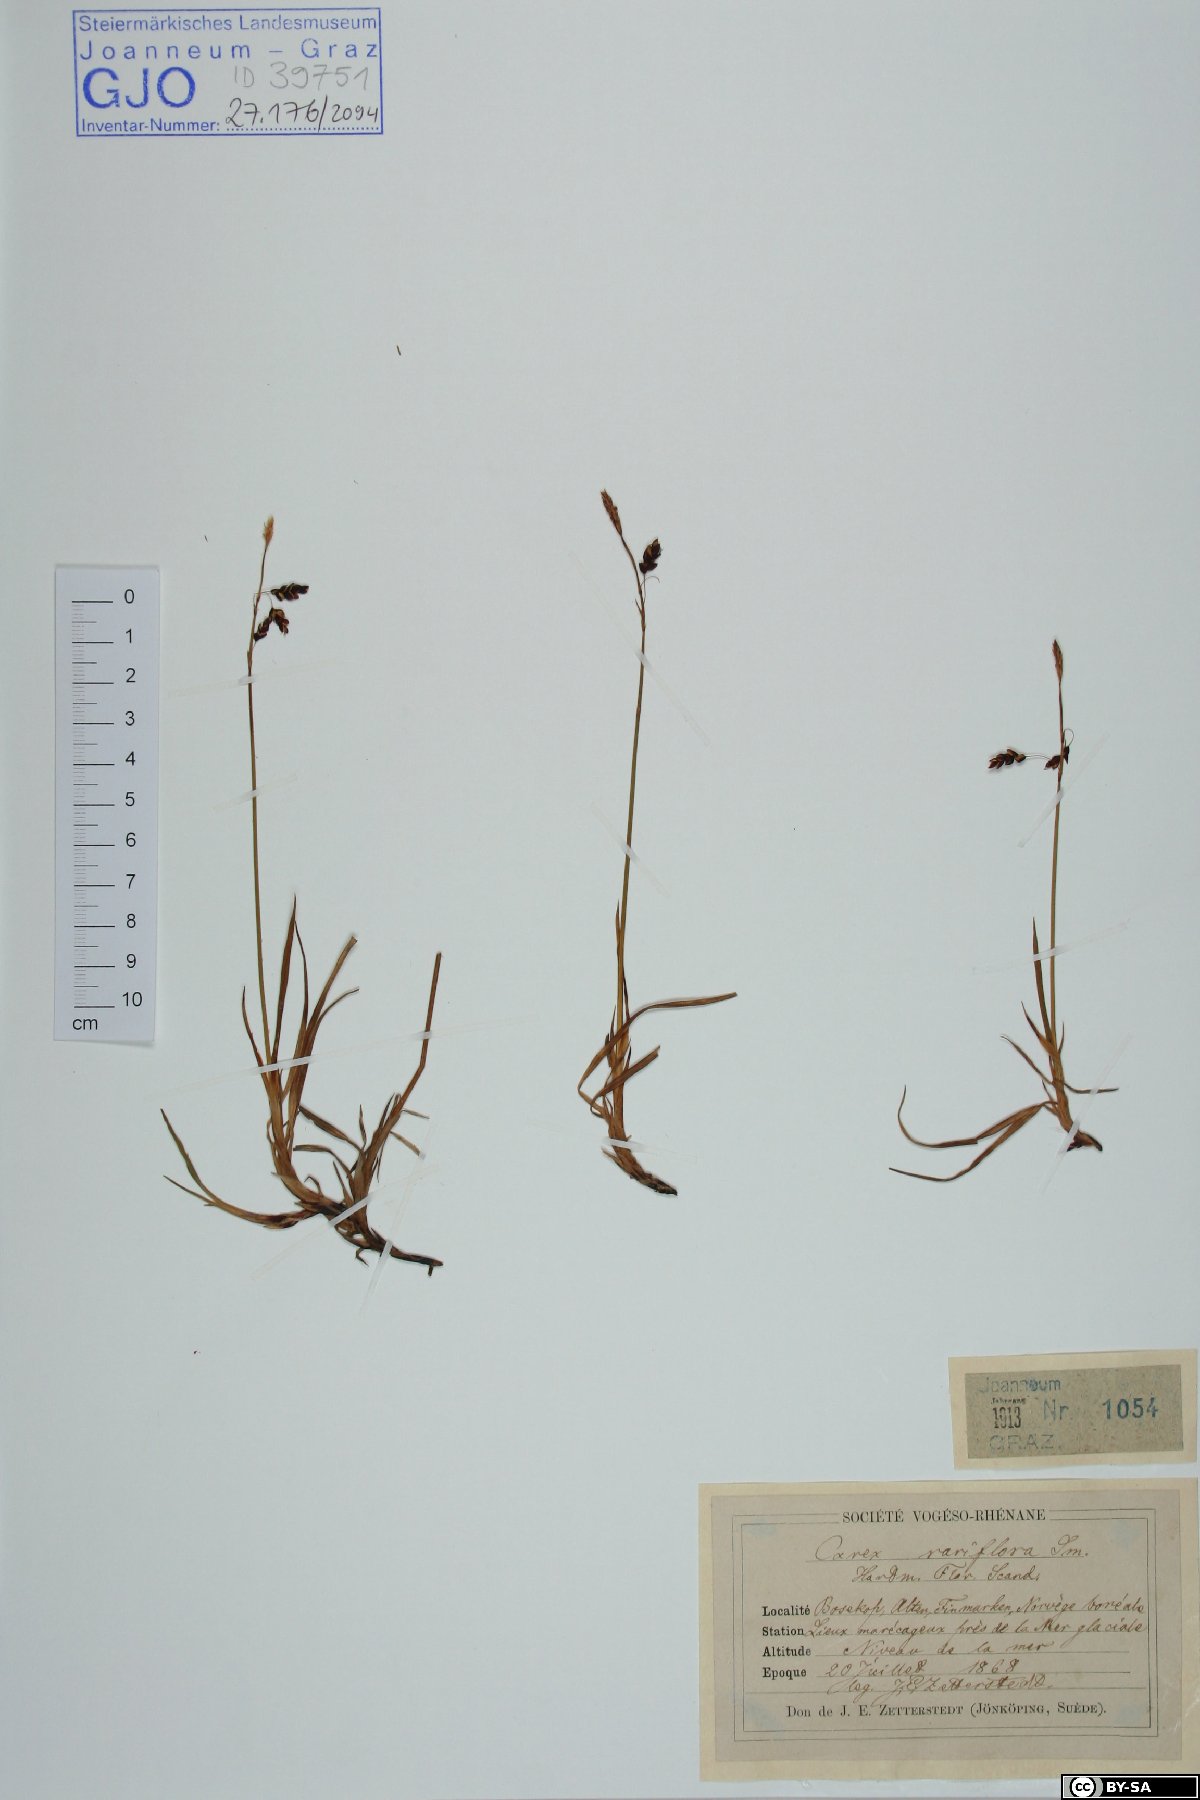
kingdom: Plantae
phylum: Tracheophyta
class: Liliopsida
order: Poales
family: Cyperaceae
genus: Carex
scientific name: Carex rariflora
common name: Loose-flowered alpine sedge
